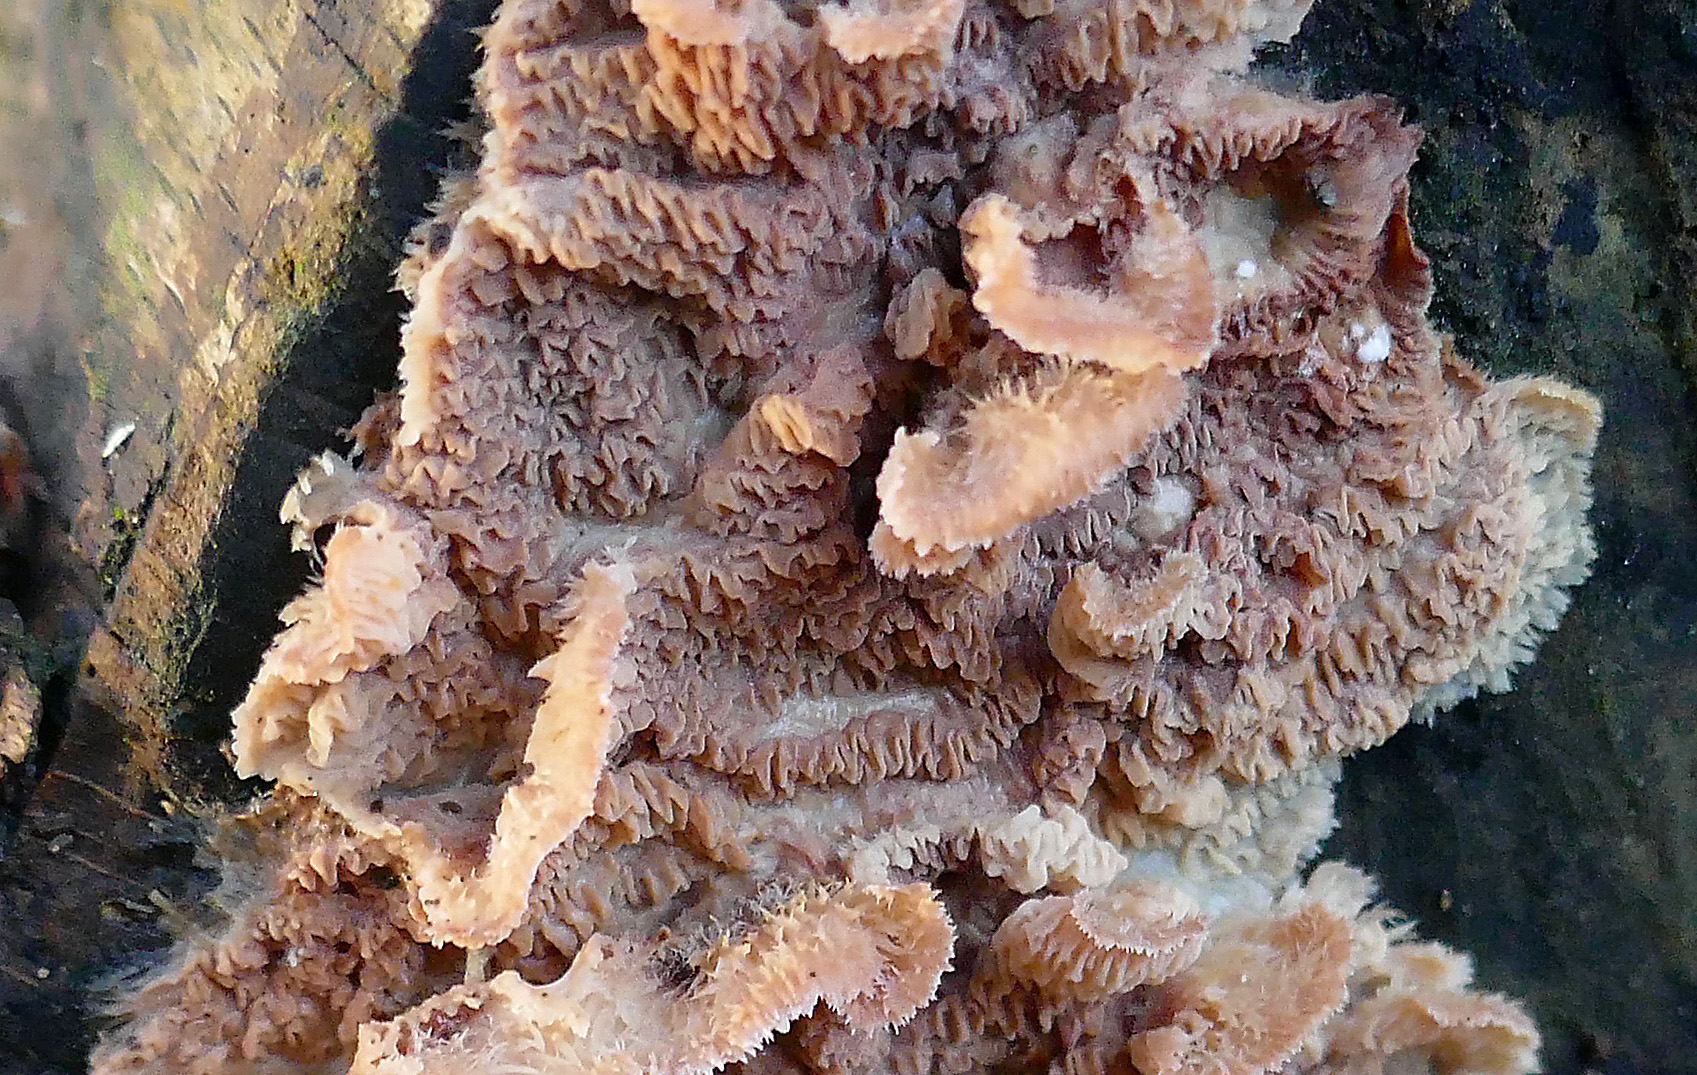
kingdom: Fungi
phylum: Basidiomycota
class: Agaricomycetes
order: Polyporales
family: Meruliaceae
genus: Phlebia
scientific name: Phlebia tremellosa
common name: bævrende åresvamp
